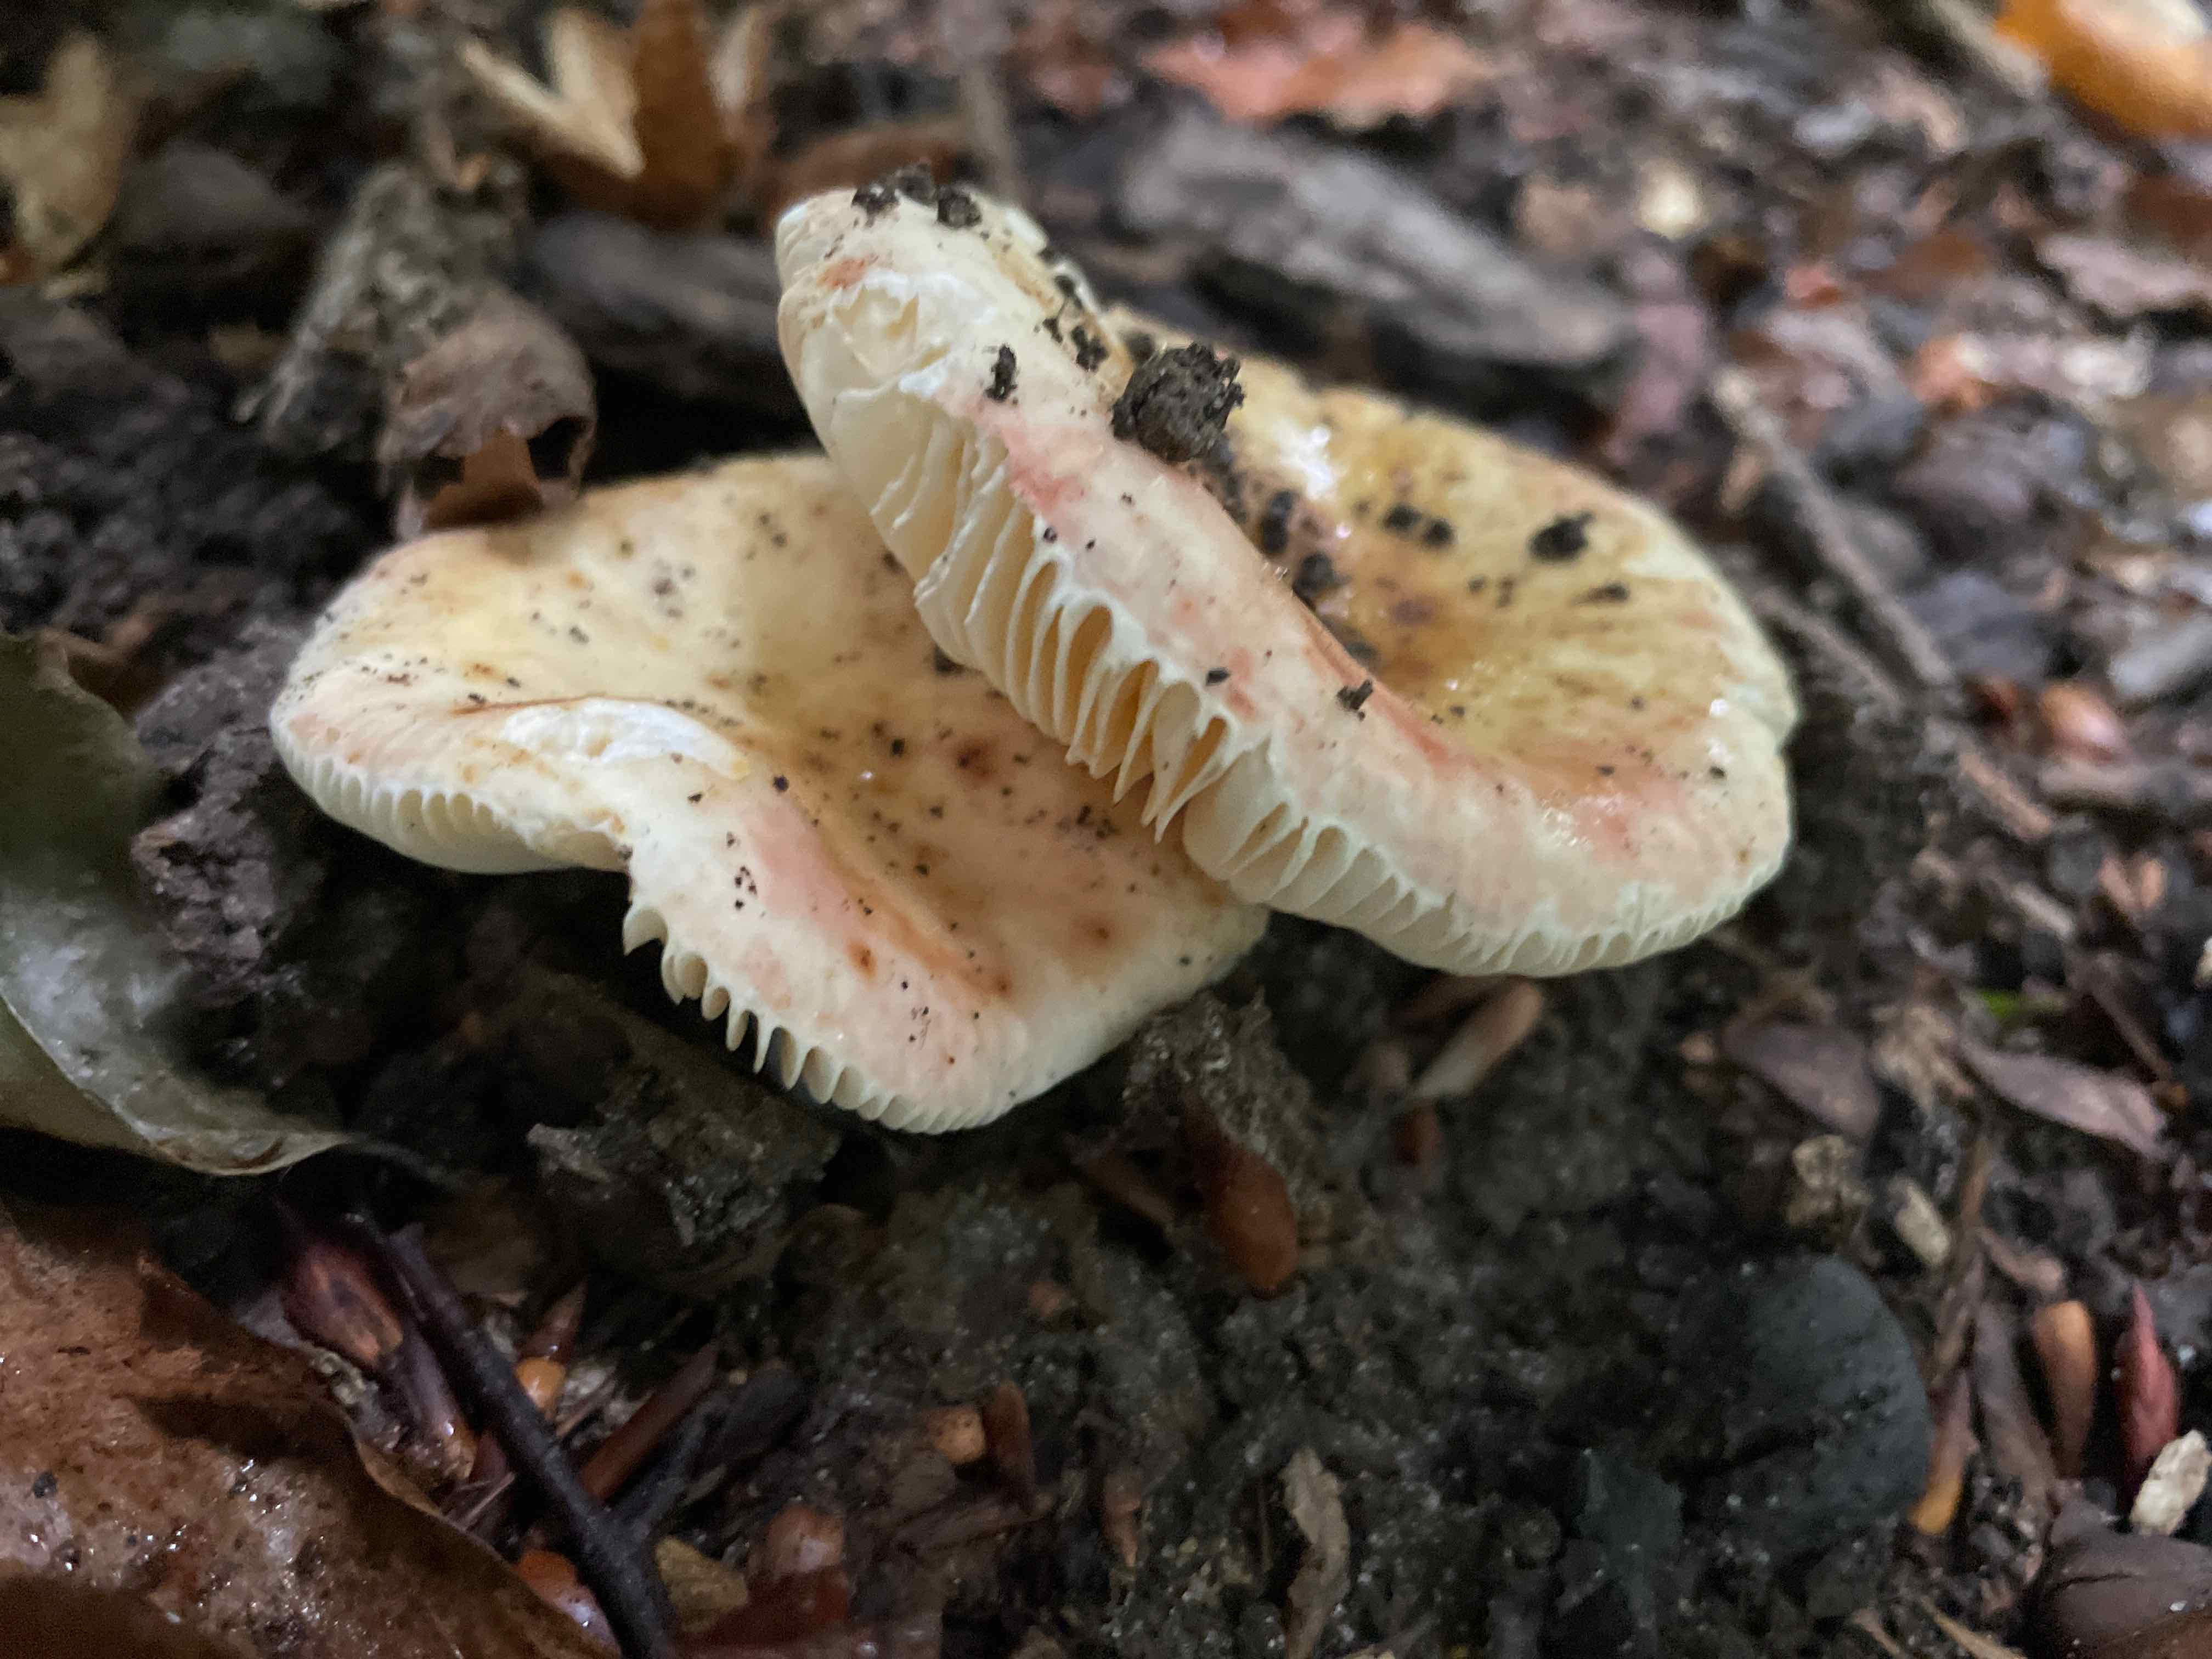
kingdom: Fungi
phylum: Basidiomycota
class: Agaricomycetes
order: Russulales
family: Russulaceae
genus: Russula
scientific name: Russula
